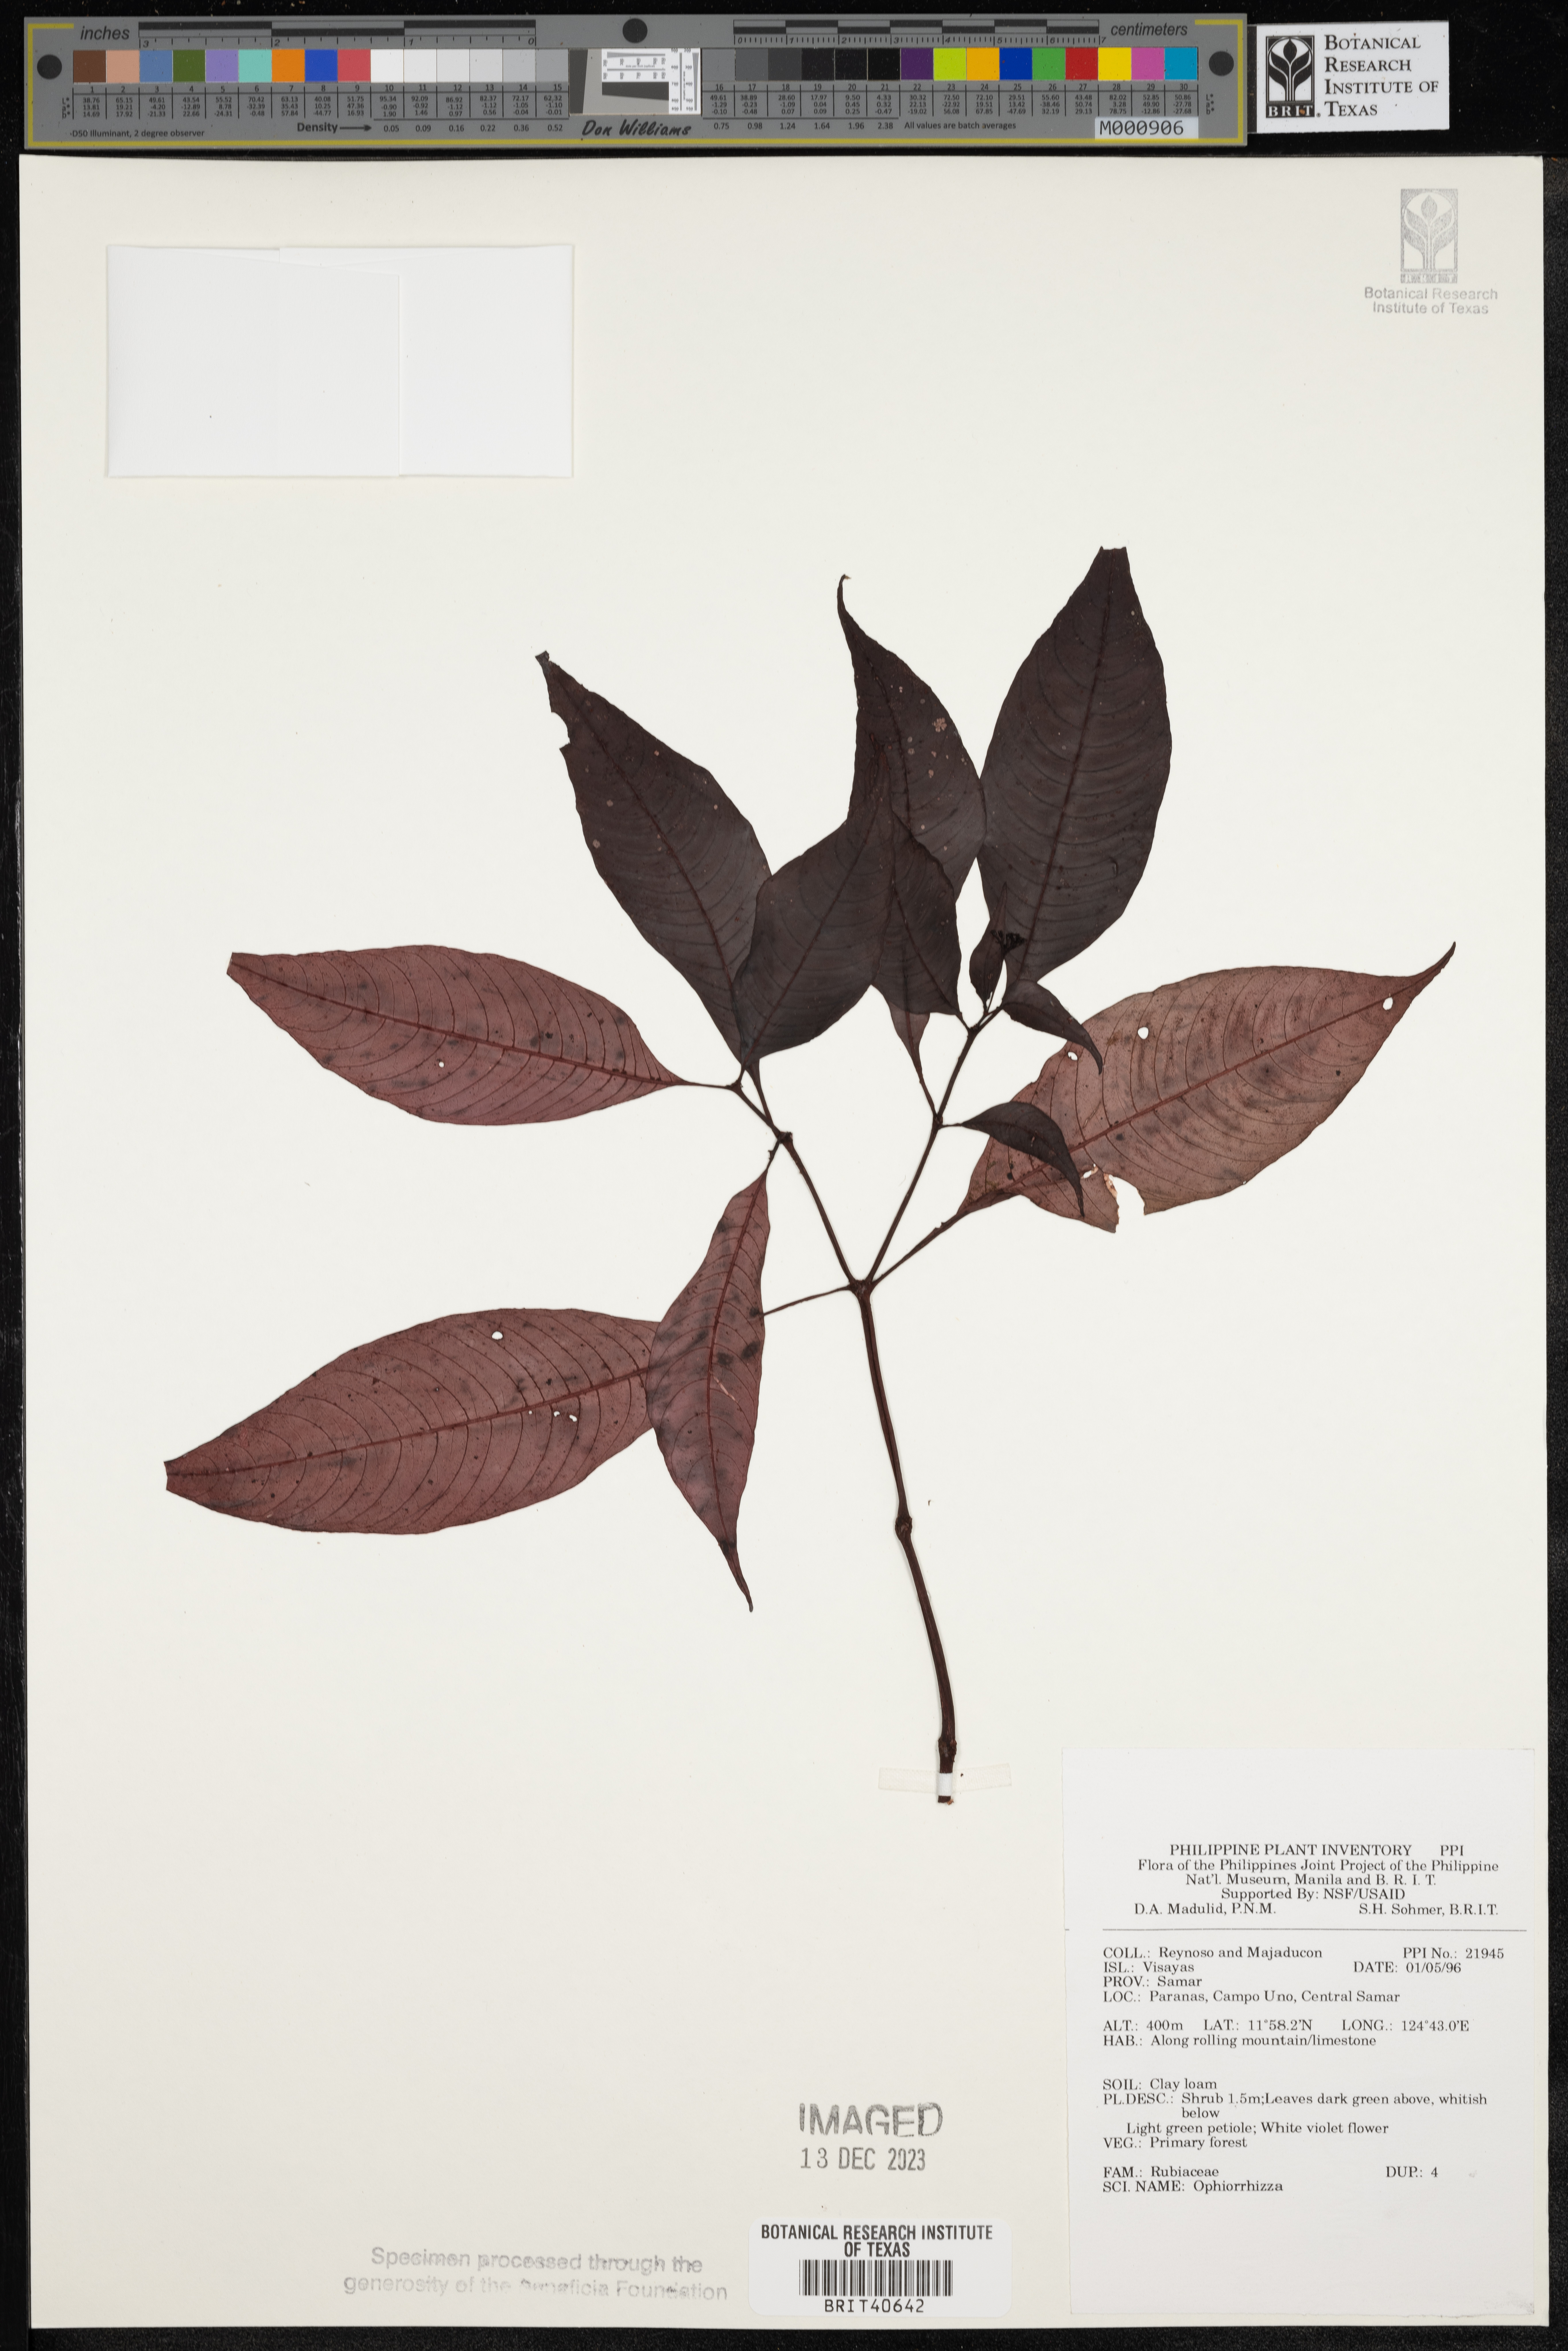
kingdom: Plantae
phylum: Tracheophyta
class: Magnoliopsida
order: Gentianales
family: Rubiaceae
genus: Ophiorrhiza
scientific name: Ophiorrhiza
